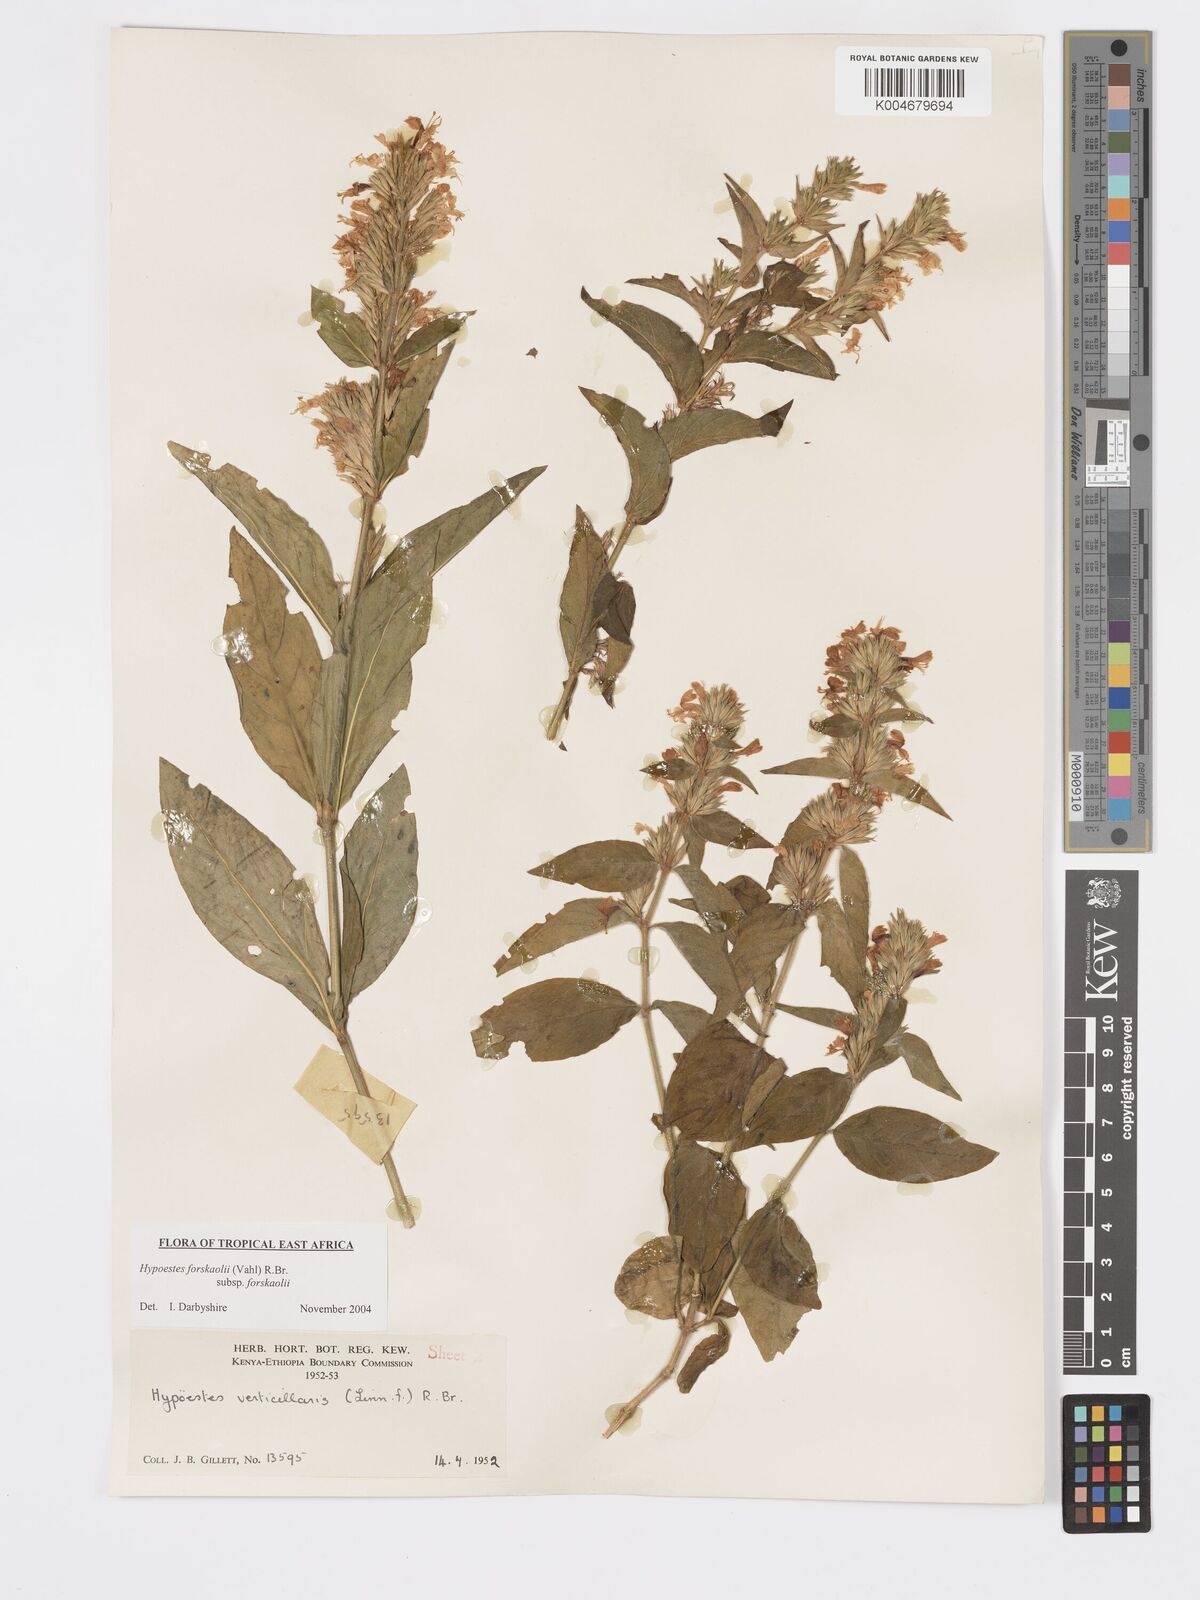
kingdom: Plantae
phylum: Tracheophyta
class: Magnoliopsida
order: Lamiales
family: Acanthaceae
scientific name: Acanthaceae
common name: Acanthaceae
